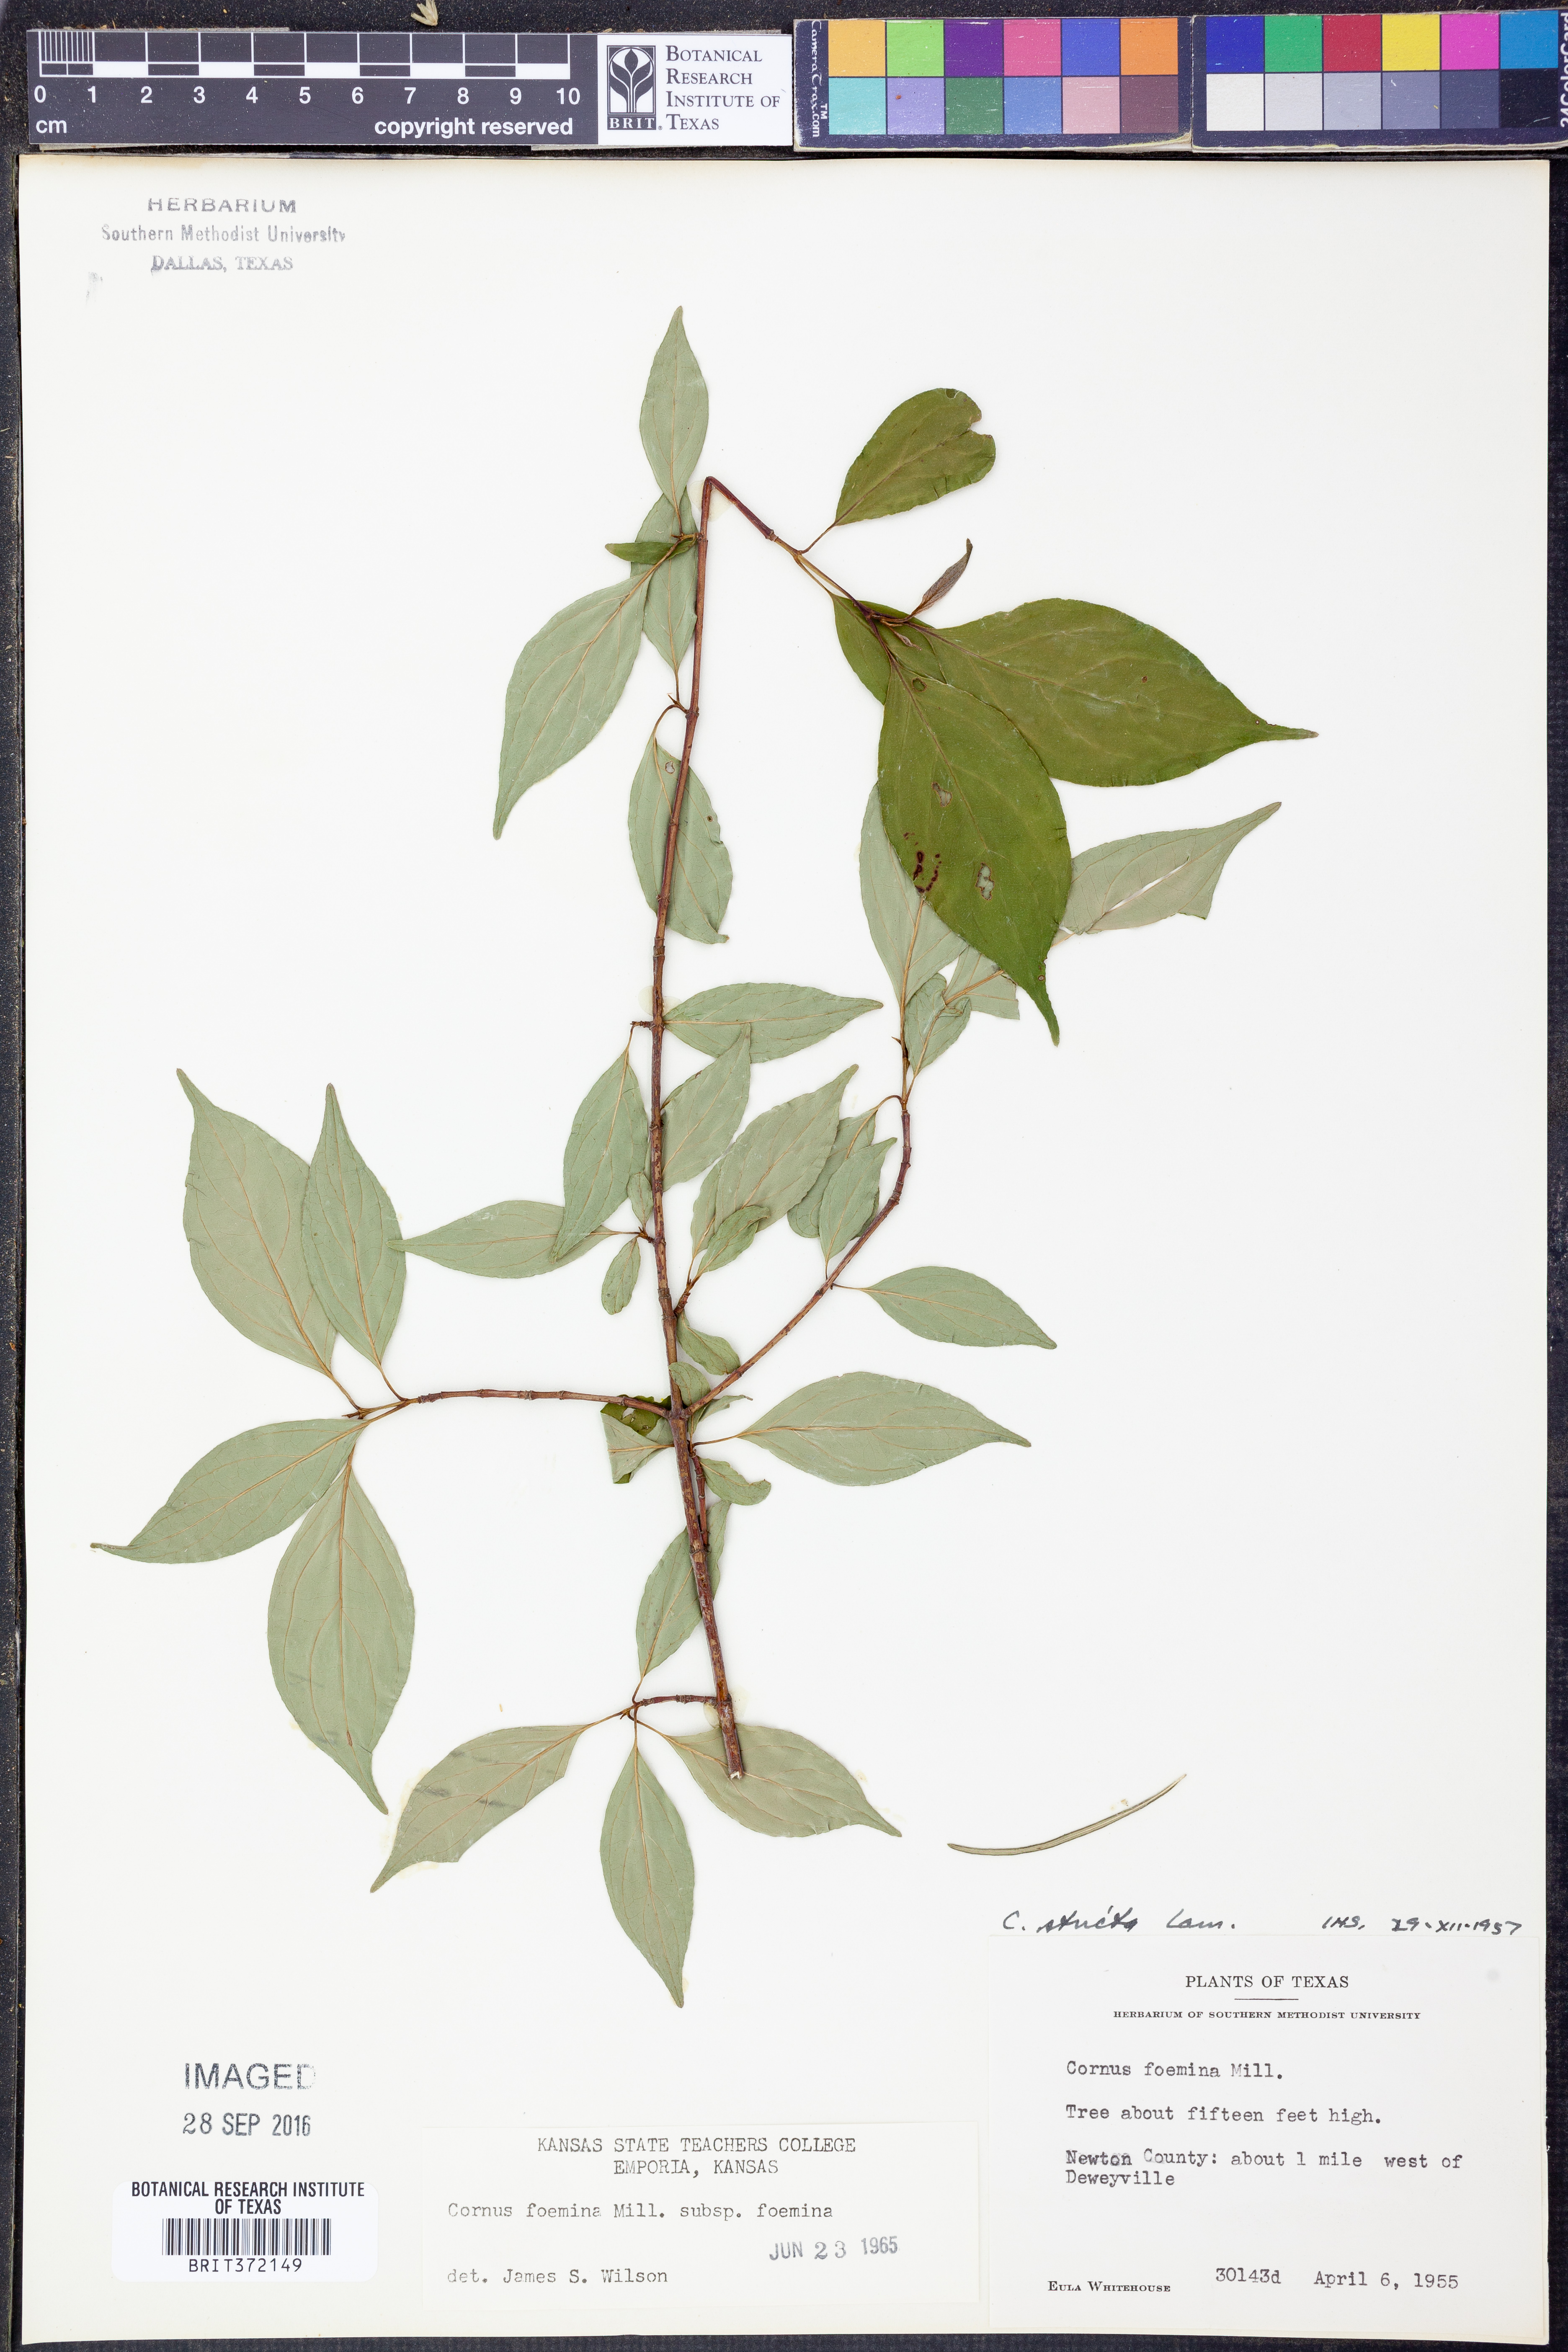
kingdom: Plantae
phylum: Tracheophyta
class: Magnoliopsida
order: Cornales
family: Cornaceae
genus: Cornus
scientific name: Cornus foemina
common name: Swamp dogwood
